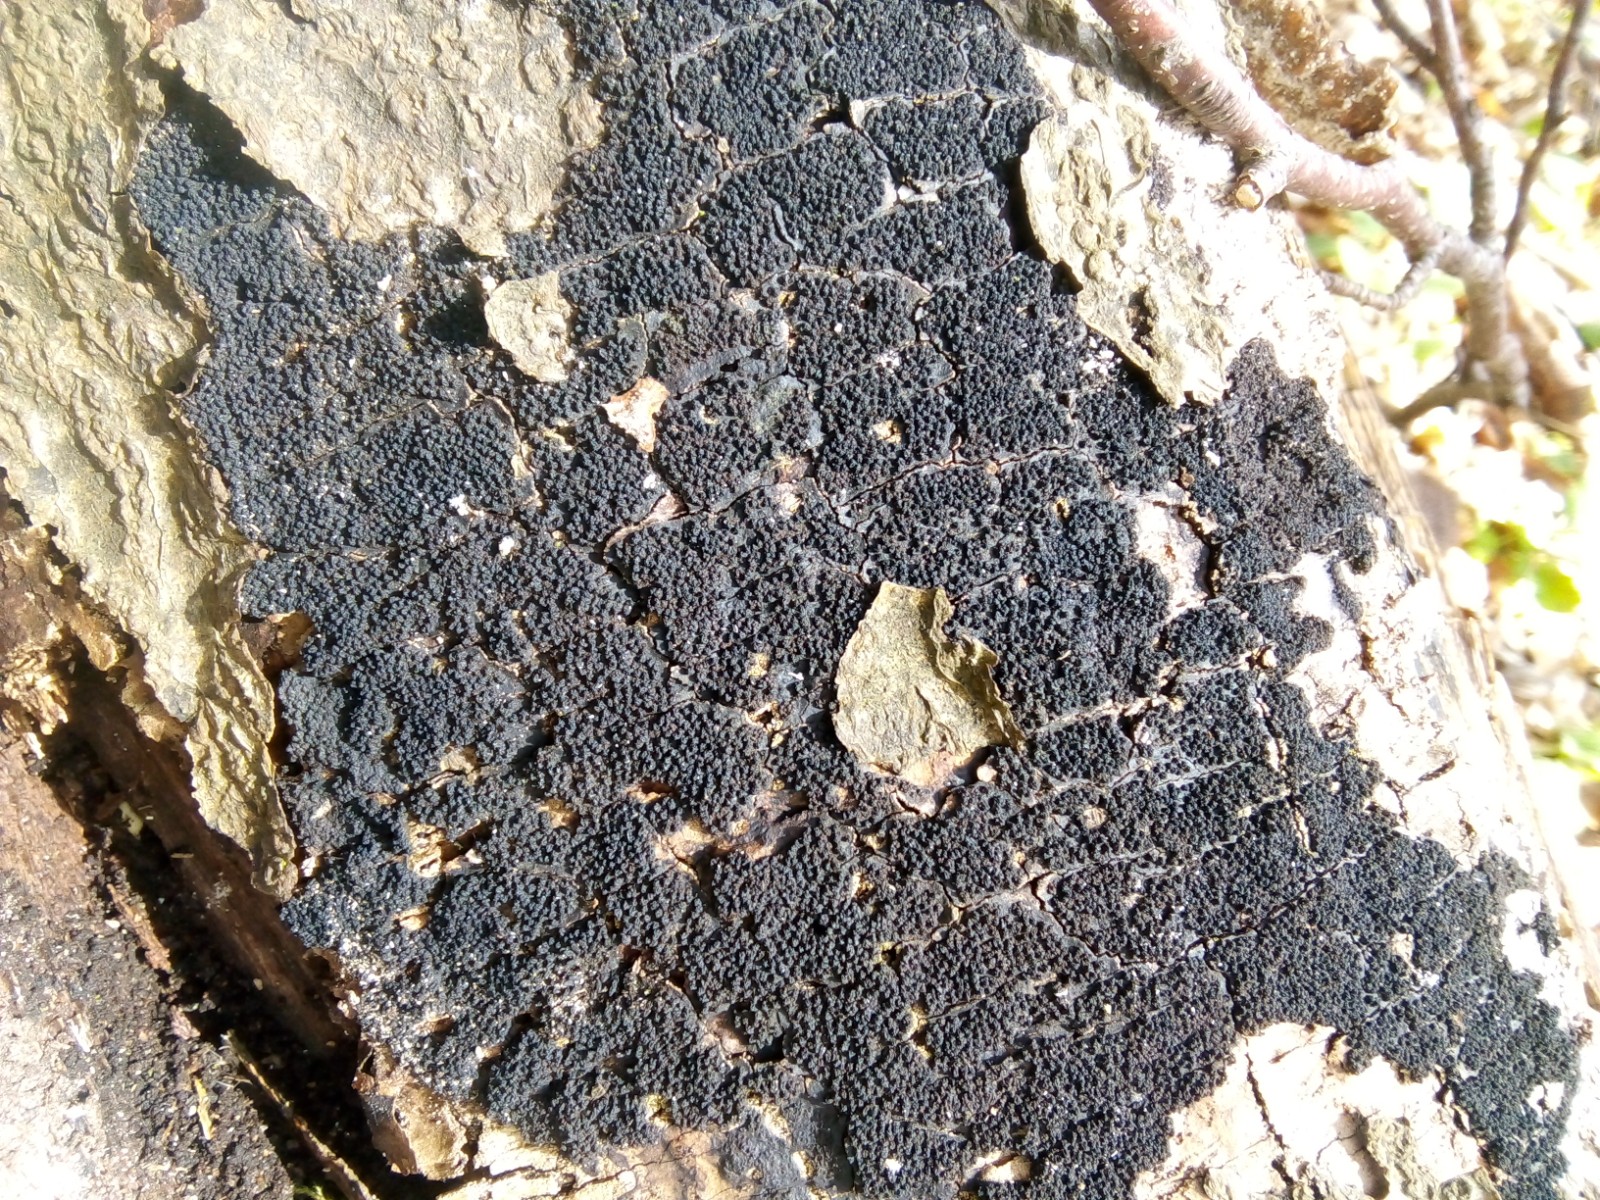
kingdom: Fungi
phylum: Ascomycota
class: Sordariomycetes
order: Xylariales
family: Diatrypaceae
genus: Eutypa
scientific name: Eutypa spinosa
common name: grov kulskorpe
